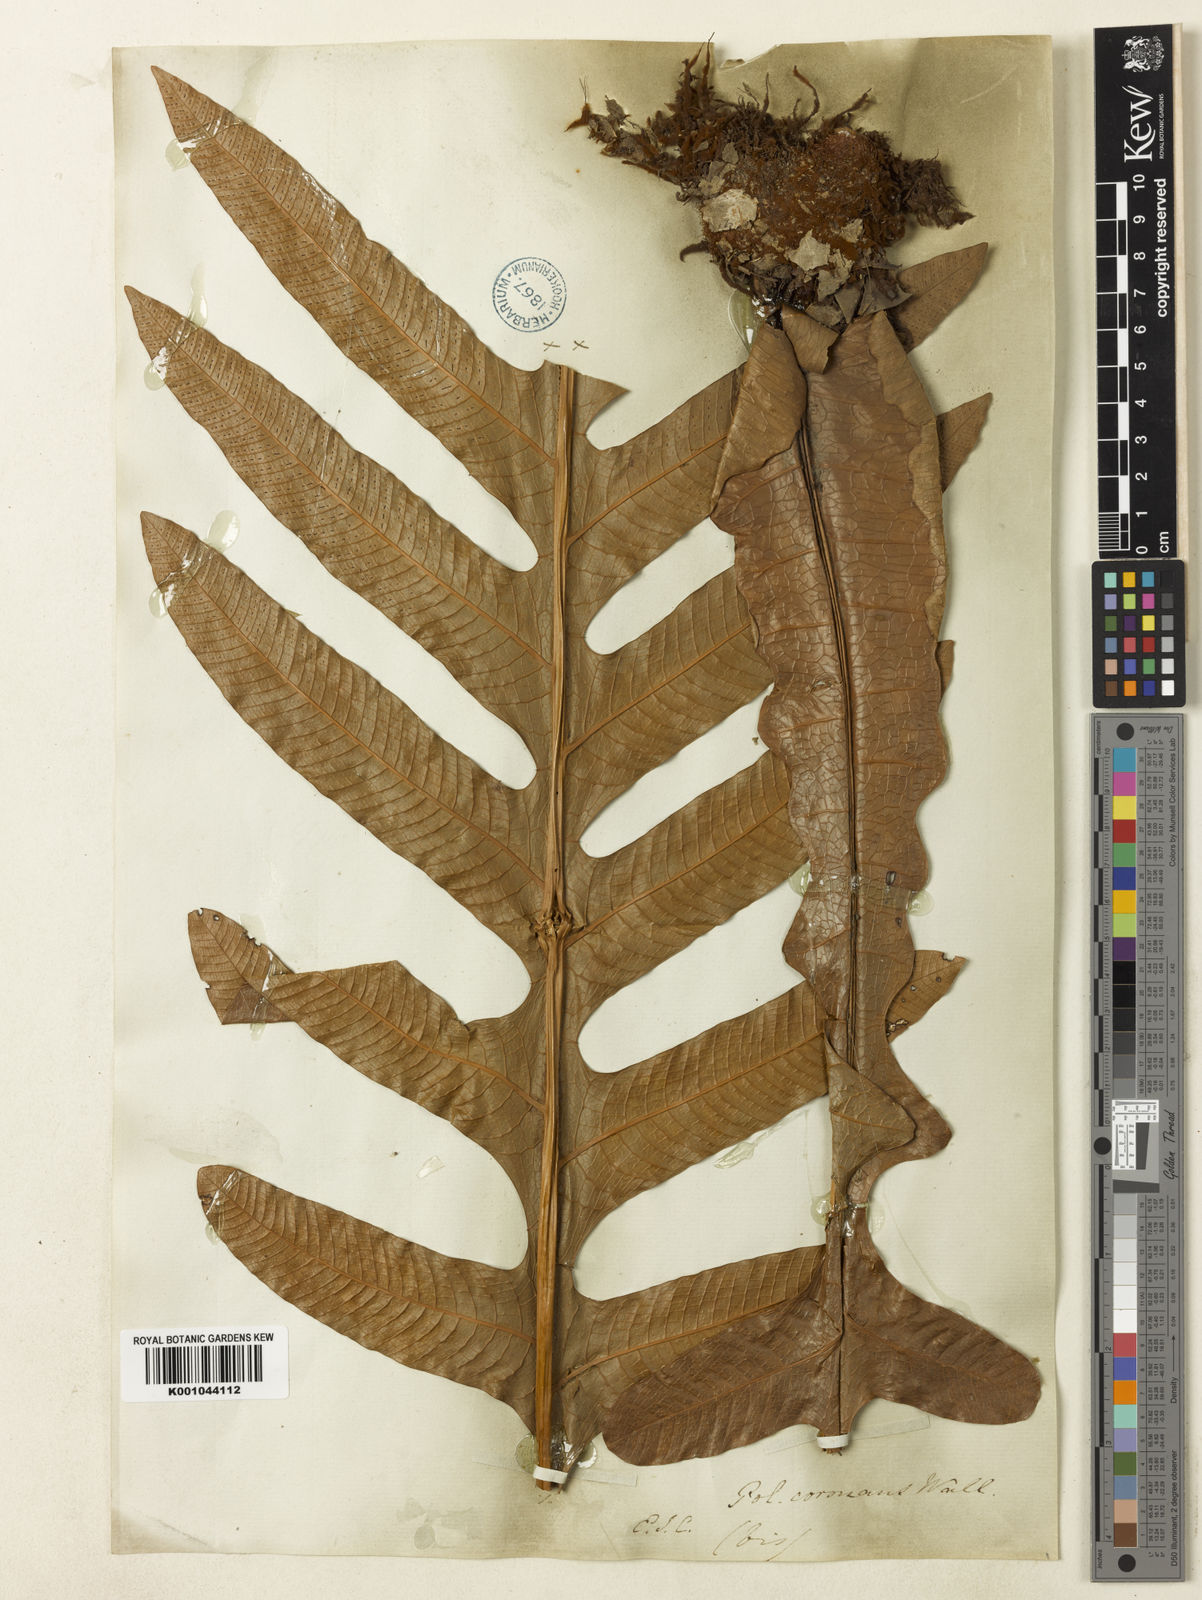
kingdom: Plantae
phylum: Tracheophyta
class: Polypodiopsida
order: Polypodiales
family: Polypodiaceae
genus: Drynaria
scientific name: Drynaria coronans
